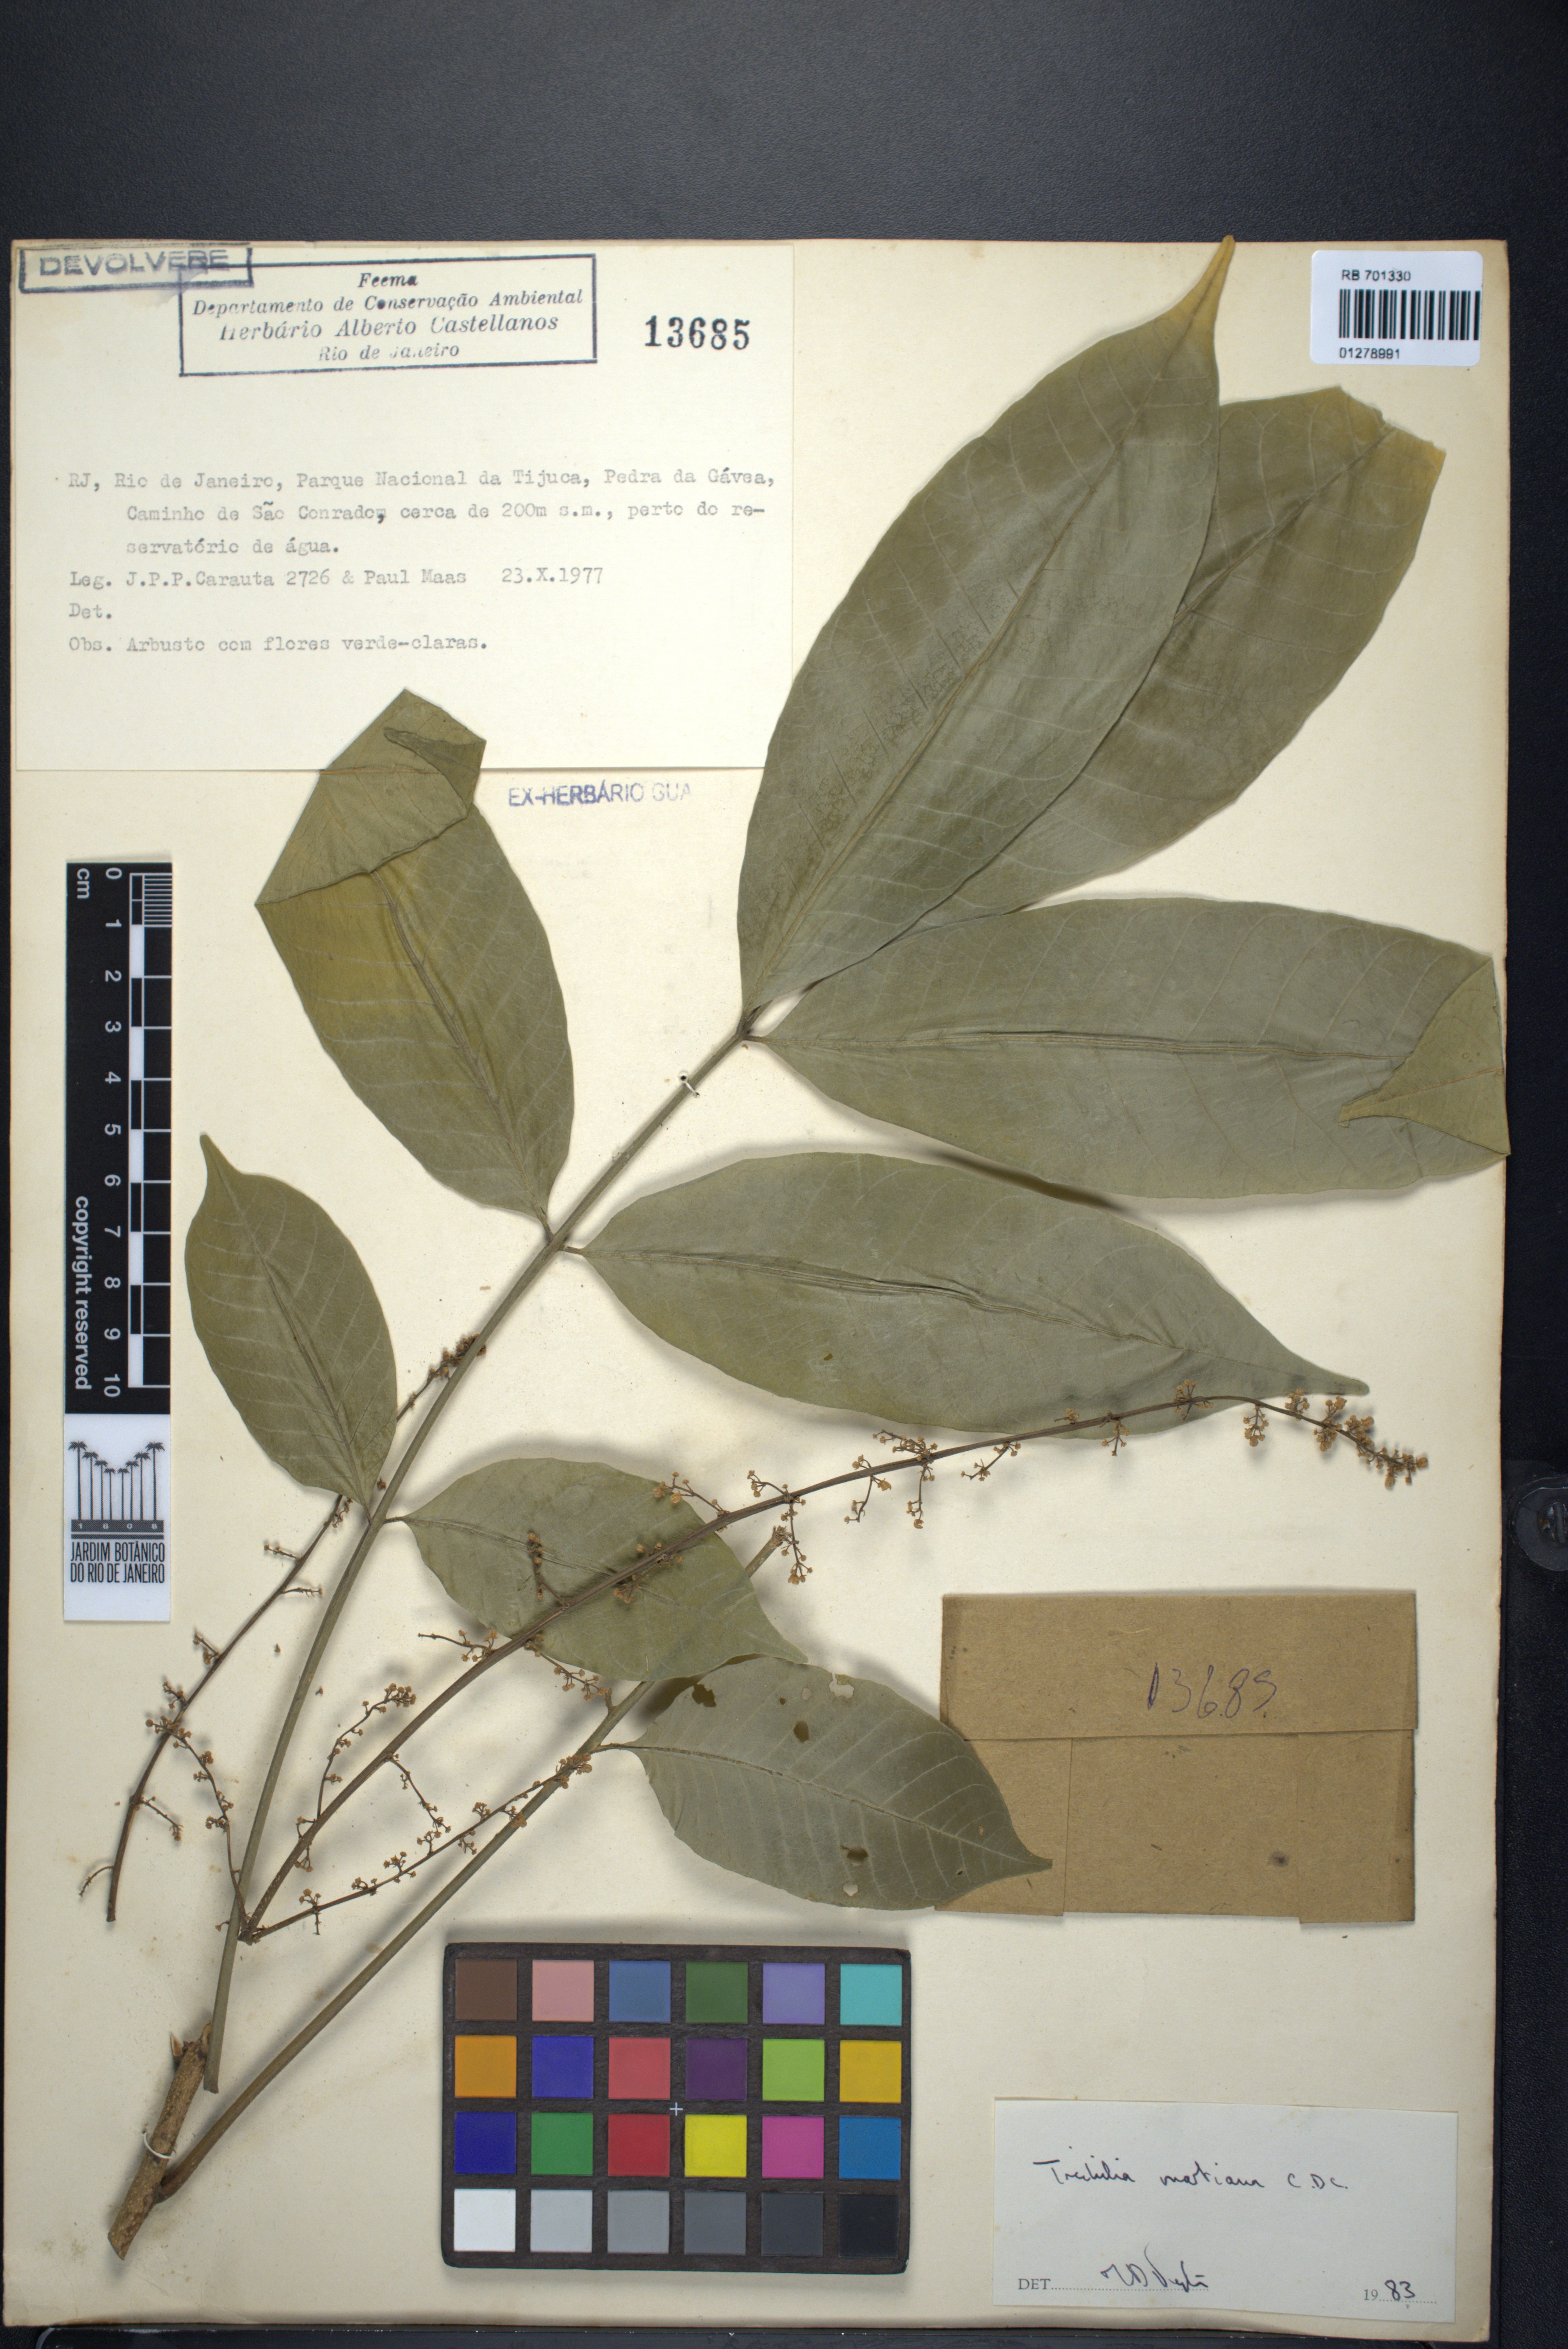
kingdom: Plantae
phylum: Tracheophyta
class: Magnoliopsida
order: Sapindales
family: Meliaceae
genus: Trichilia
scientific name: Trichilia martiana
